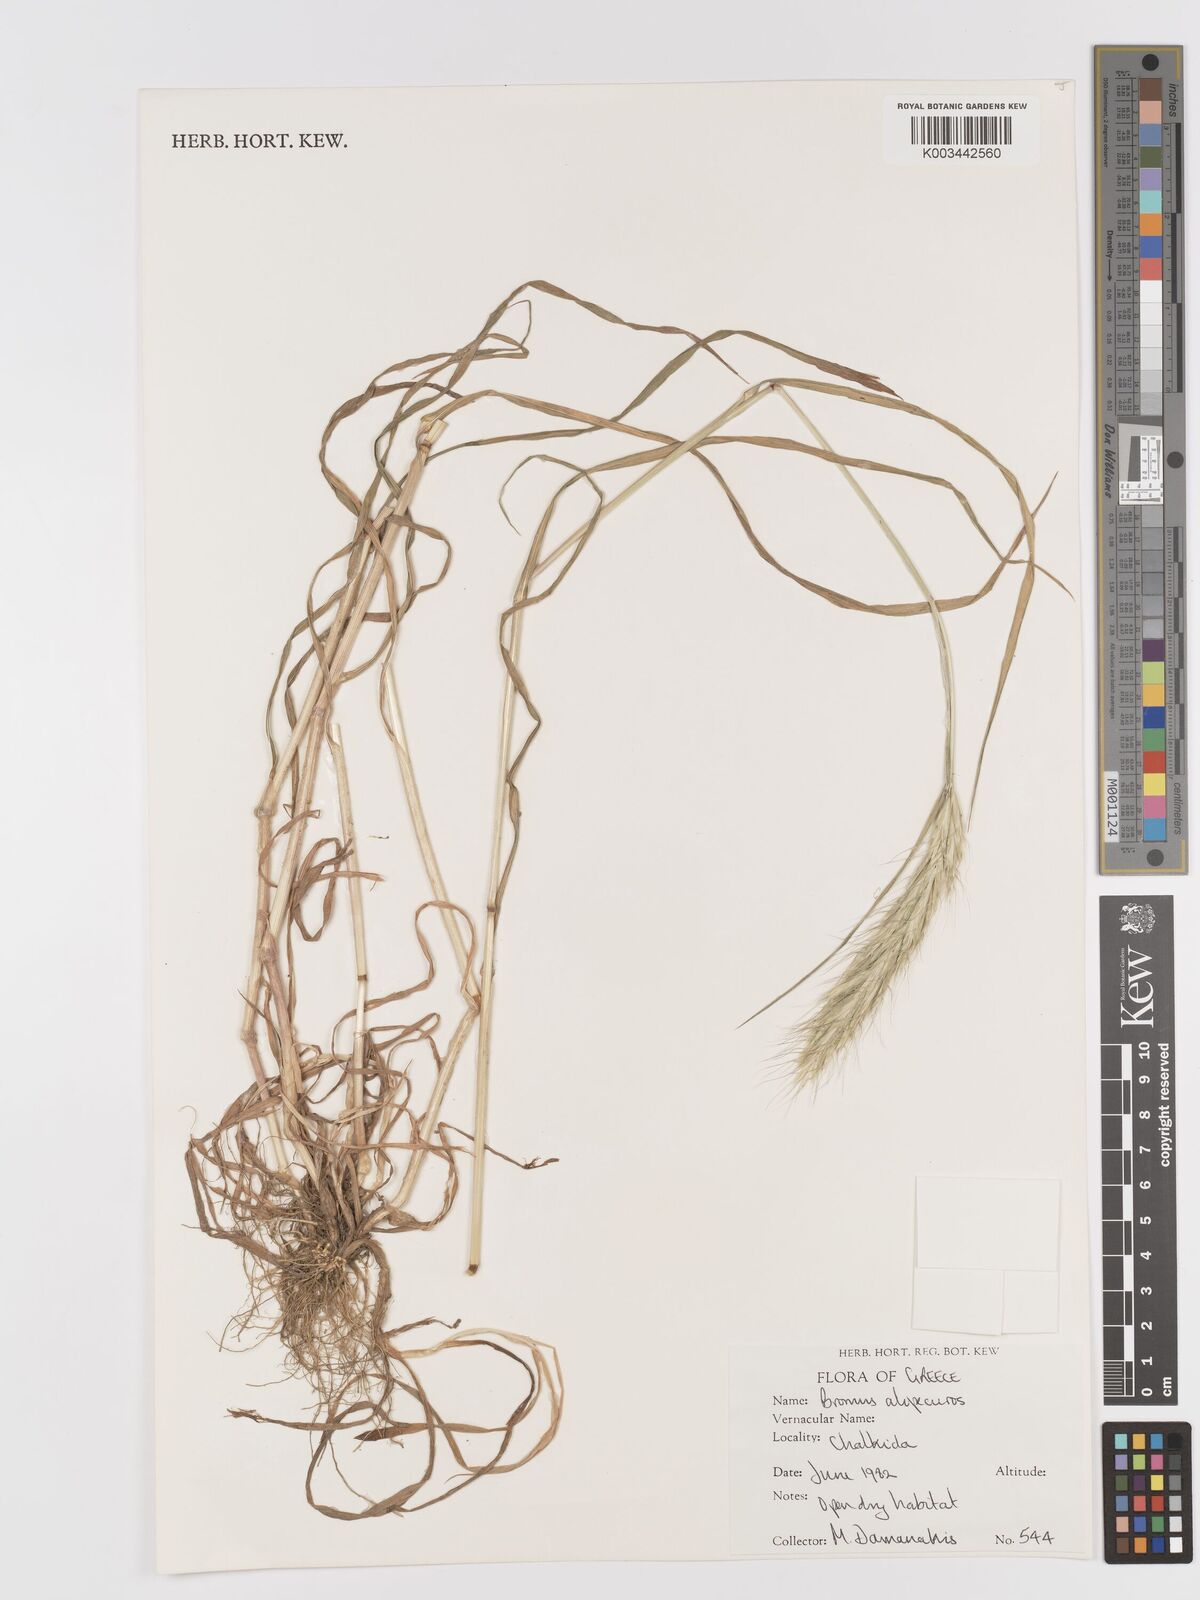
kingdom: Plantae
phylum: Tracheophyta
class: Liliopsida
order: Poales
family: Poaceae
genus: Bromus
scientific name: Bromus alopecuros
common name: Weedy brome
